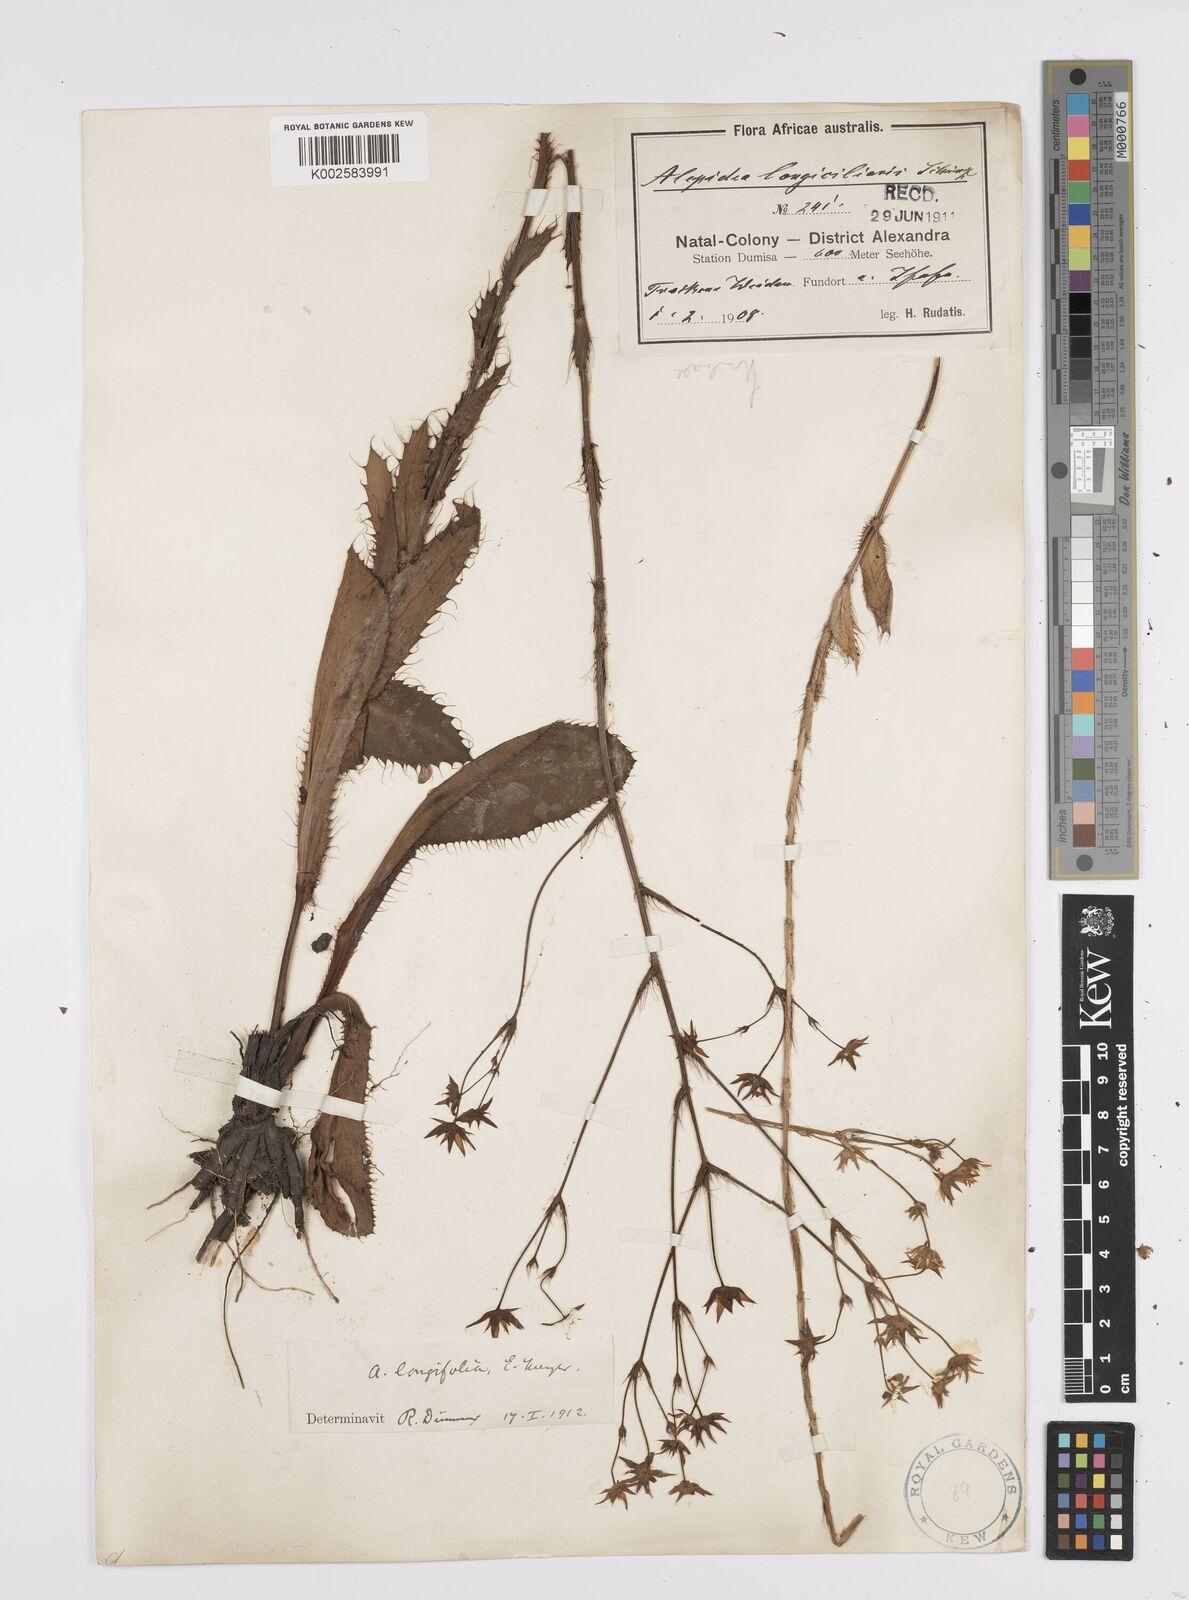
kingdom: Plantae
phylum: Tracheophyta
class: Magnoliopsida
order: Apiales
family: Apiaceae
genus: Alepidea
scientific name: Alepidea
